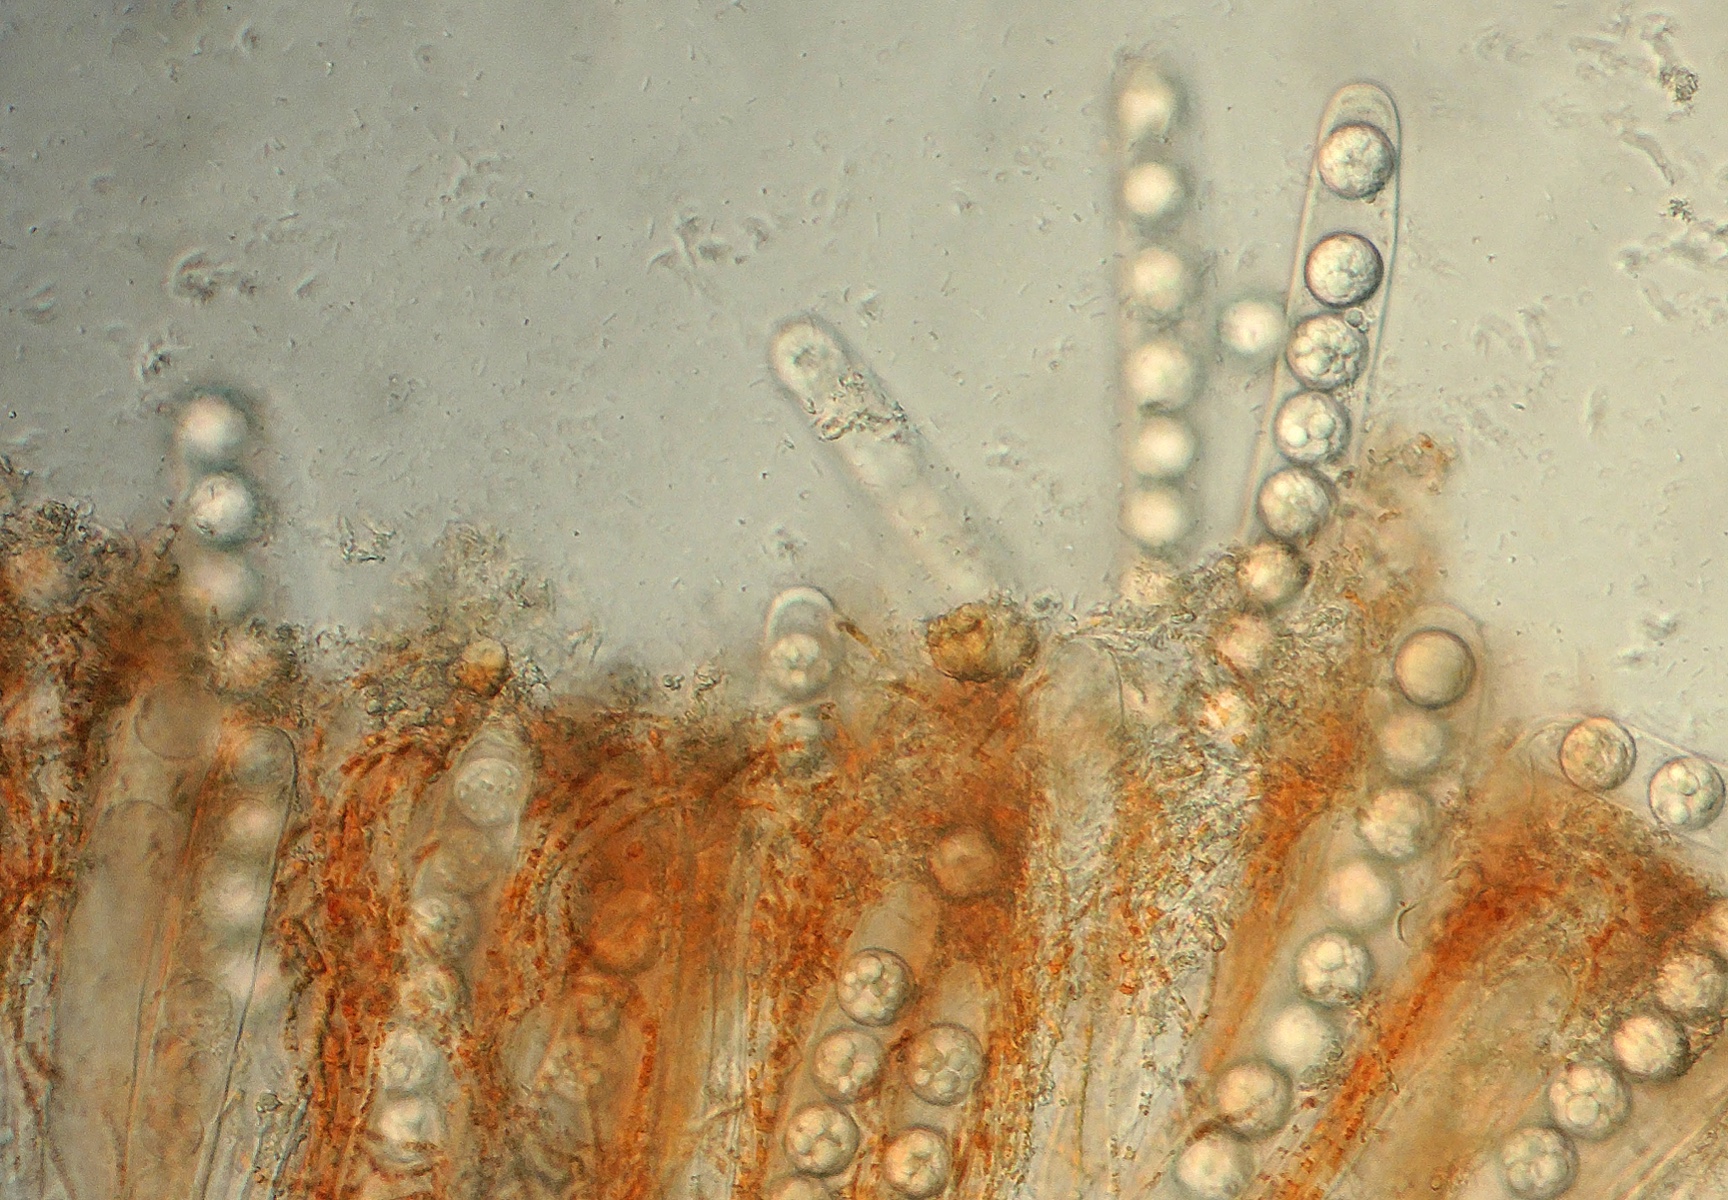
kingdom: Fungi
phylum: Ascomycota
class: Pezizomycetes
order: Pezizales
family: Pulvinulaceae
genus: Pulvinula
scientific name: Pulvinula miltina
